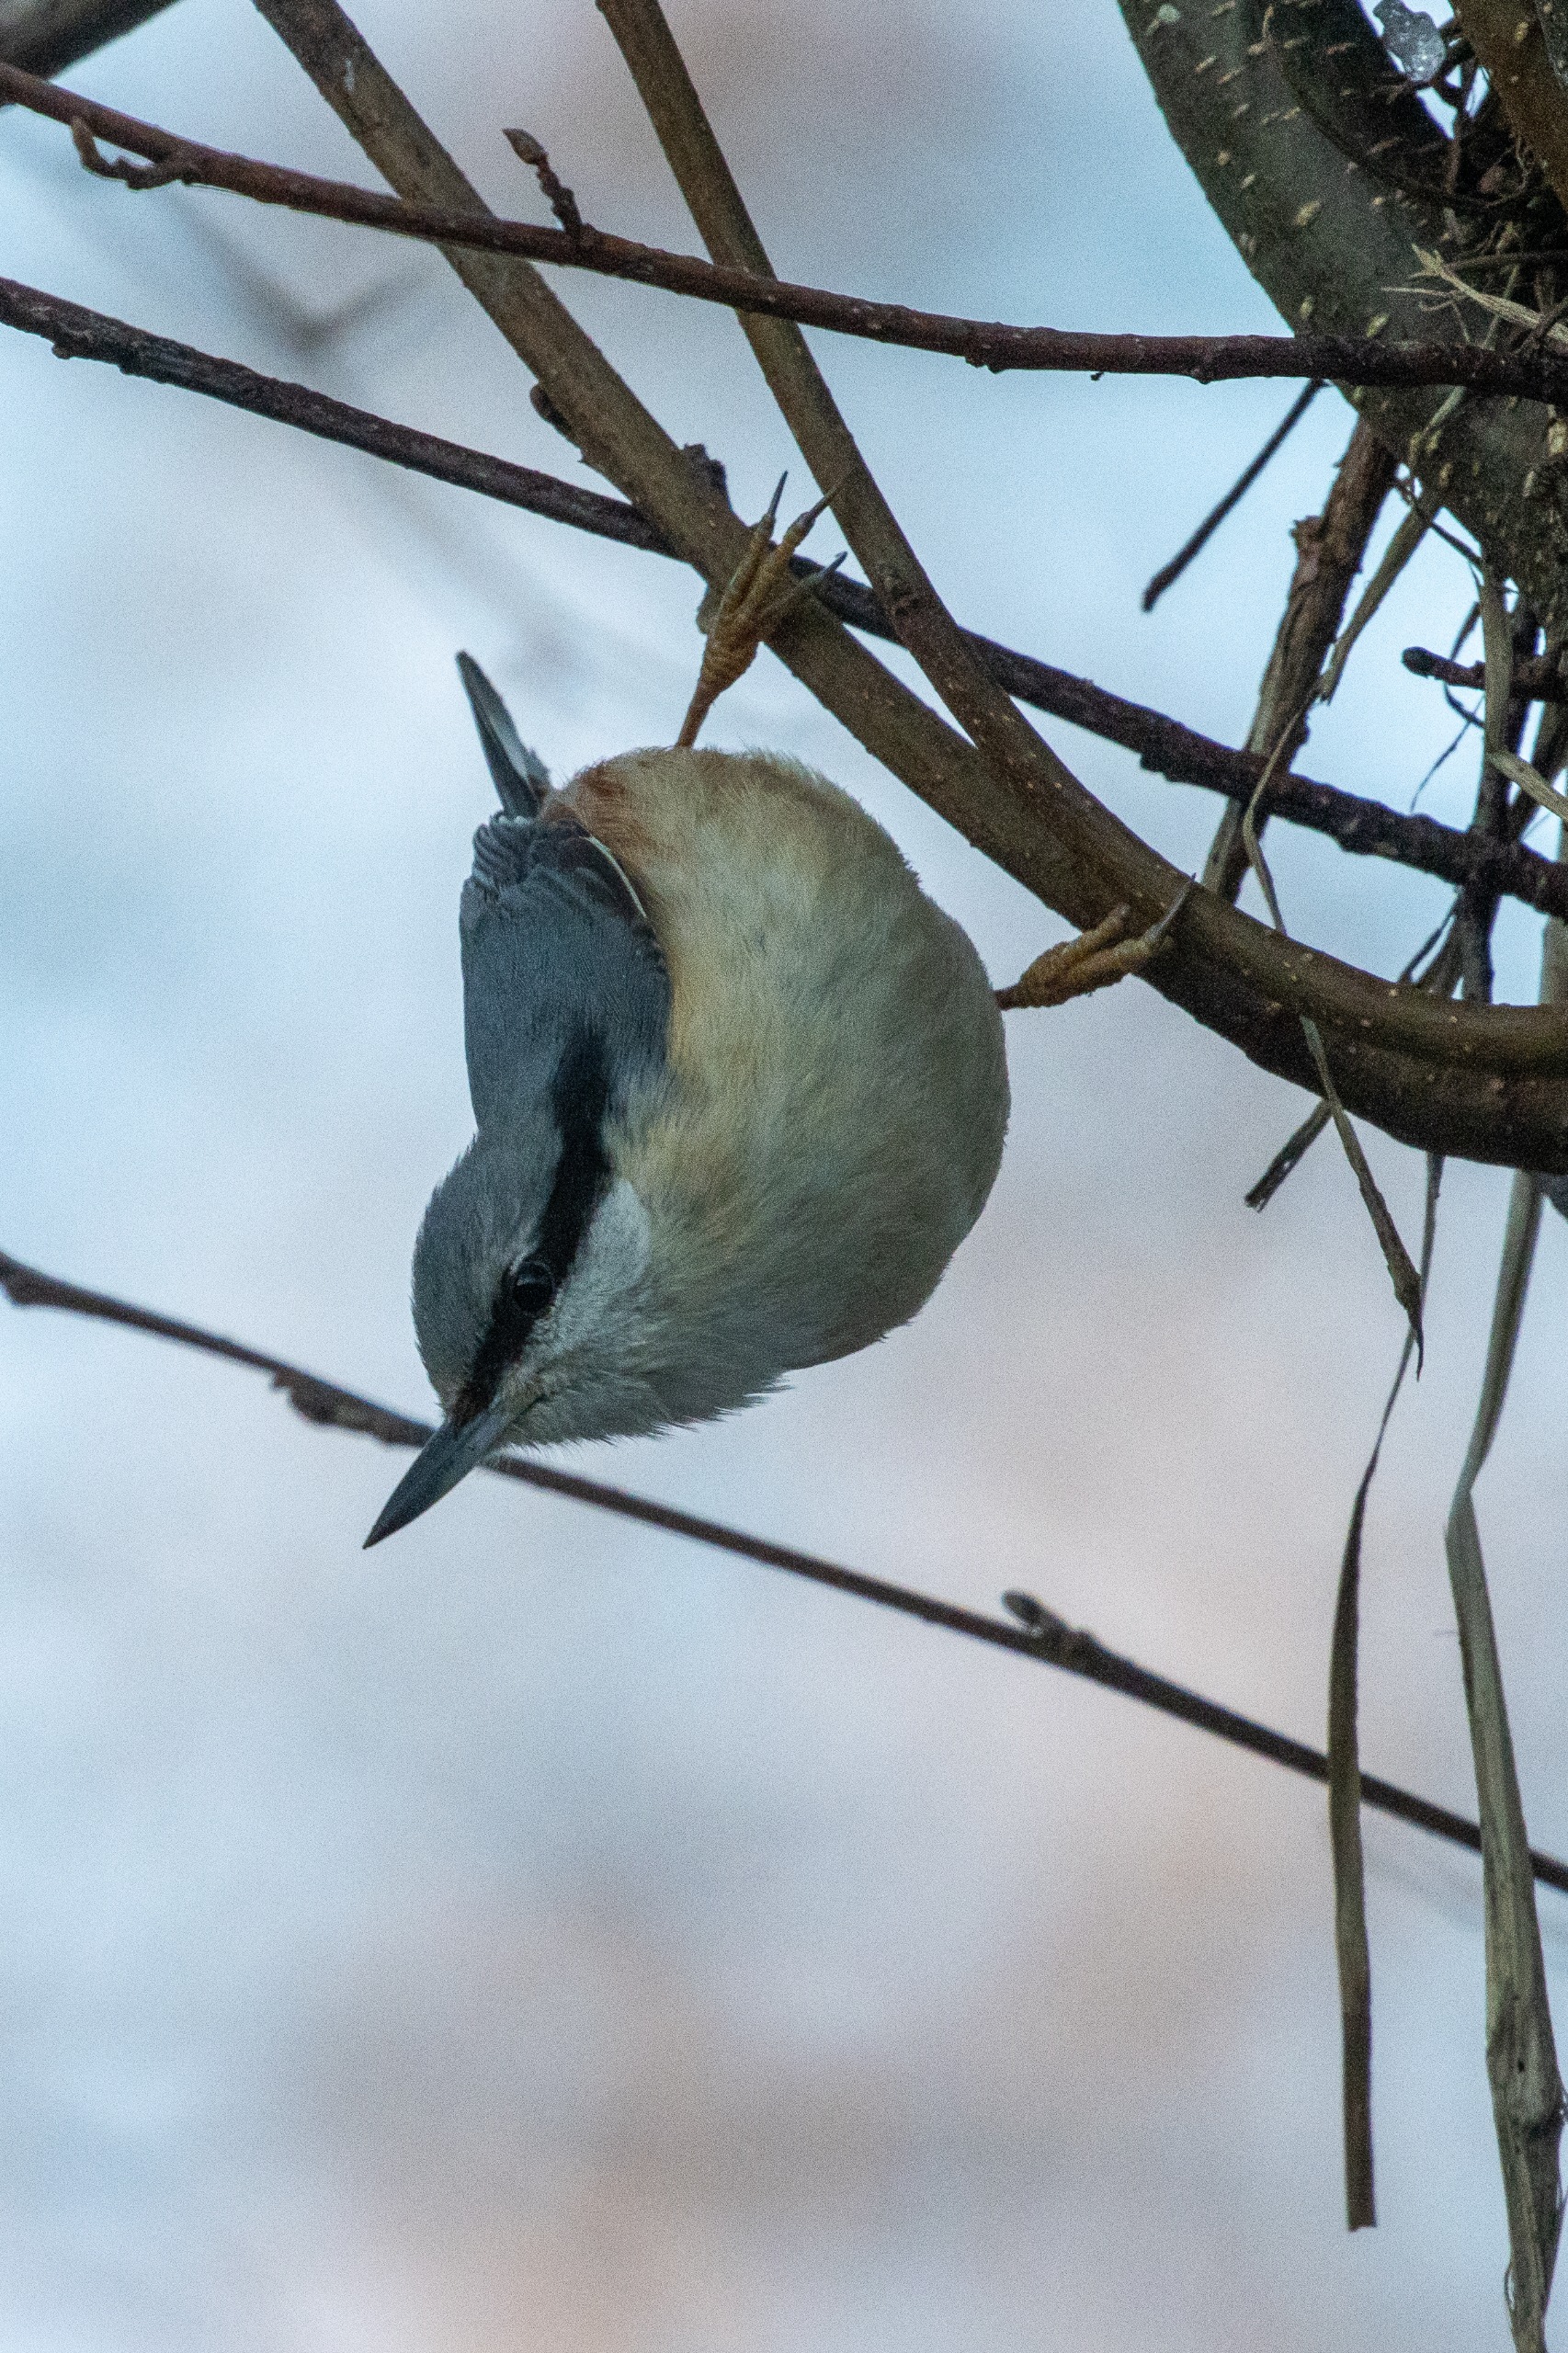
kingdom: Animalia
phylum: Chordata
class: Aves
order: Passeriformes
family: Sittidae
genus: Sitta
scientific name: Sitta europaea
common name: Spætmejse
